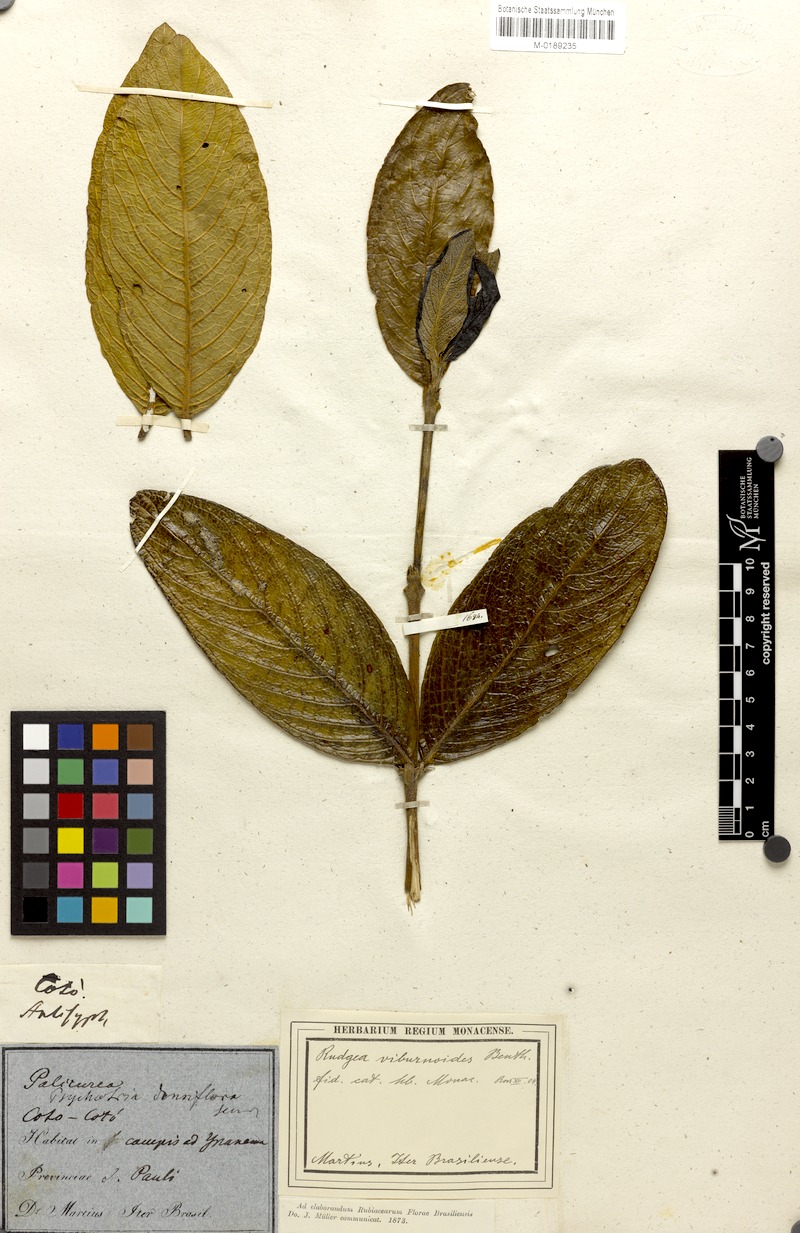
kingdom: Plantae
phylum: Tracheophyta
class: Magnoliopsida
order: Gentianales
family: Rubiaceae
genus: Rudgea
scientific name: Rudgea viburnoides
